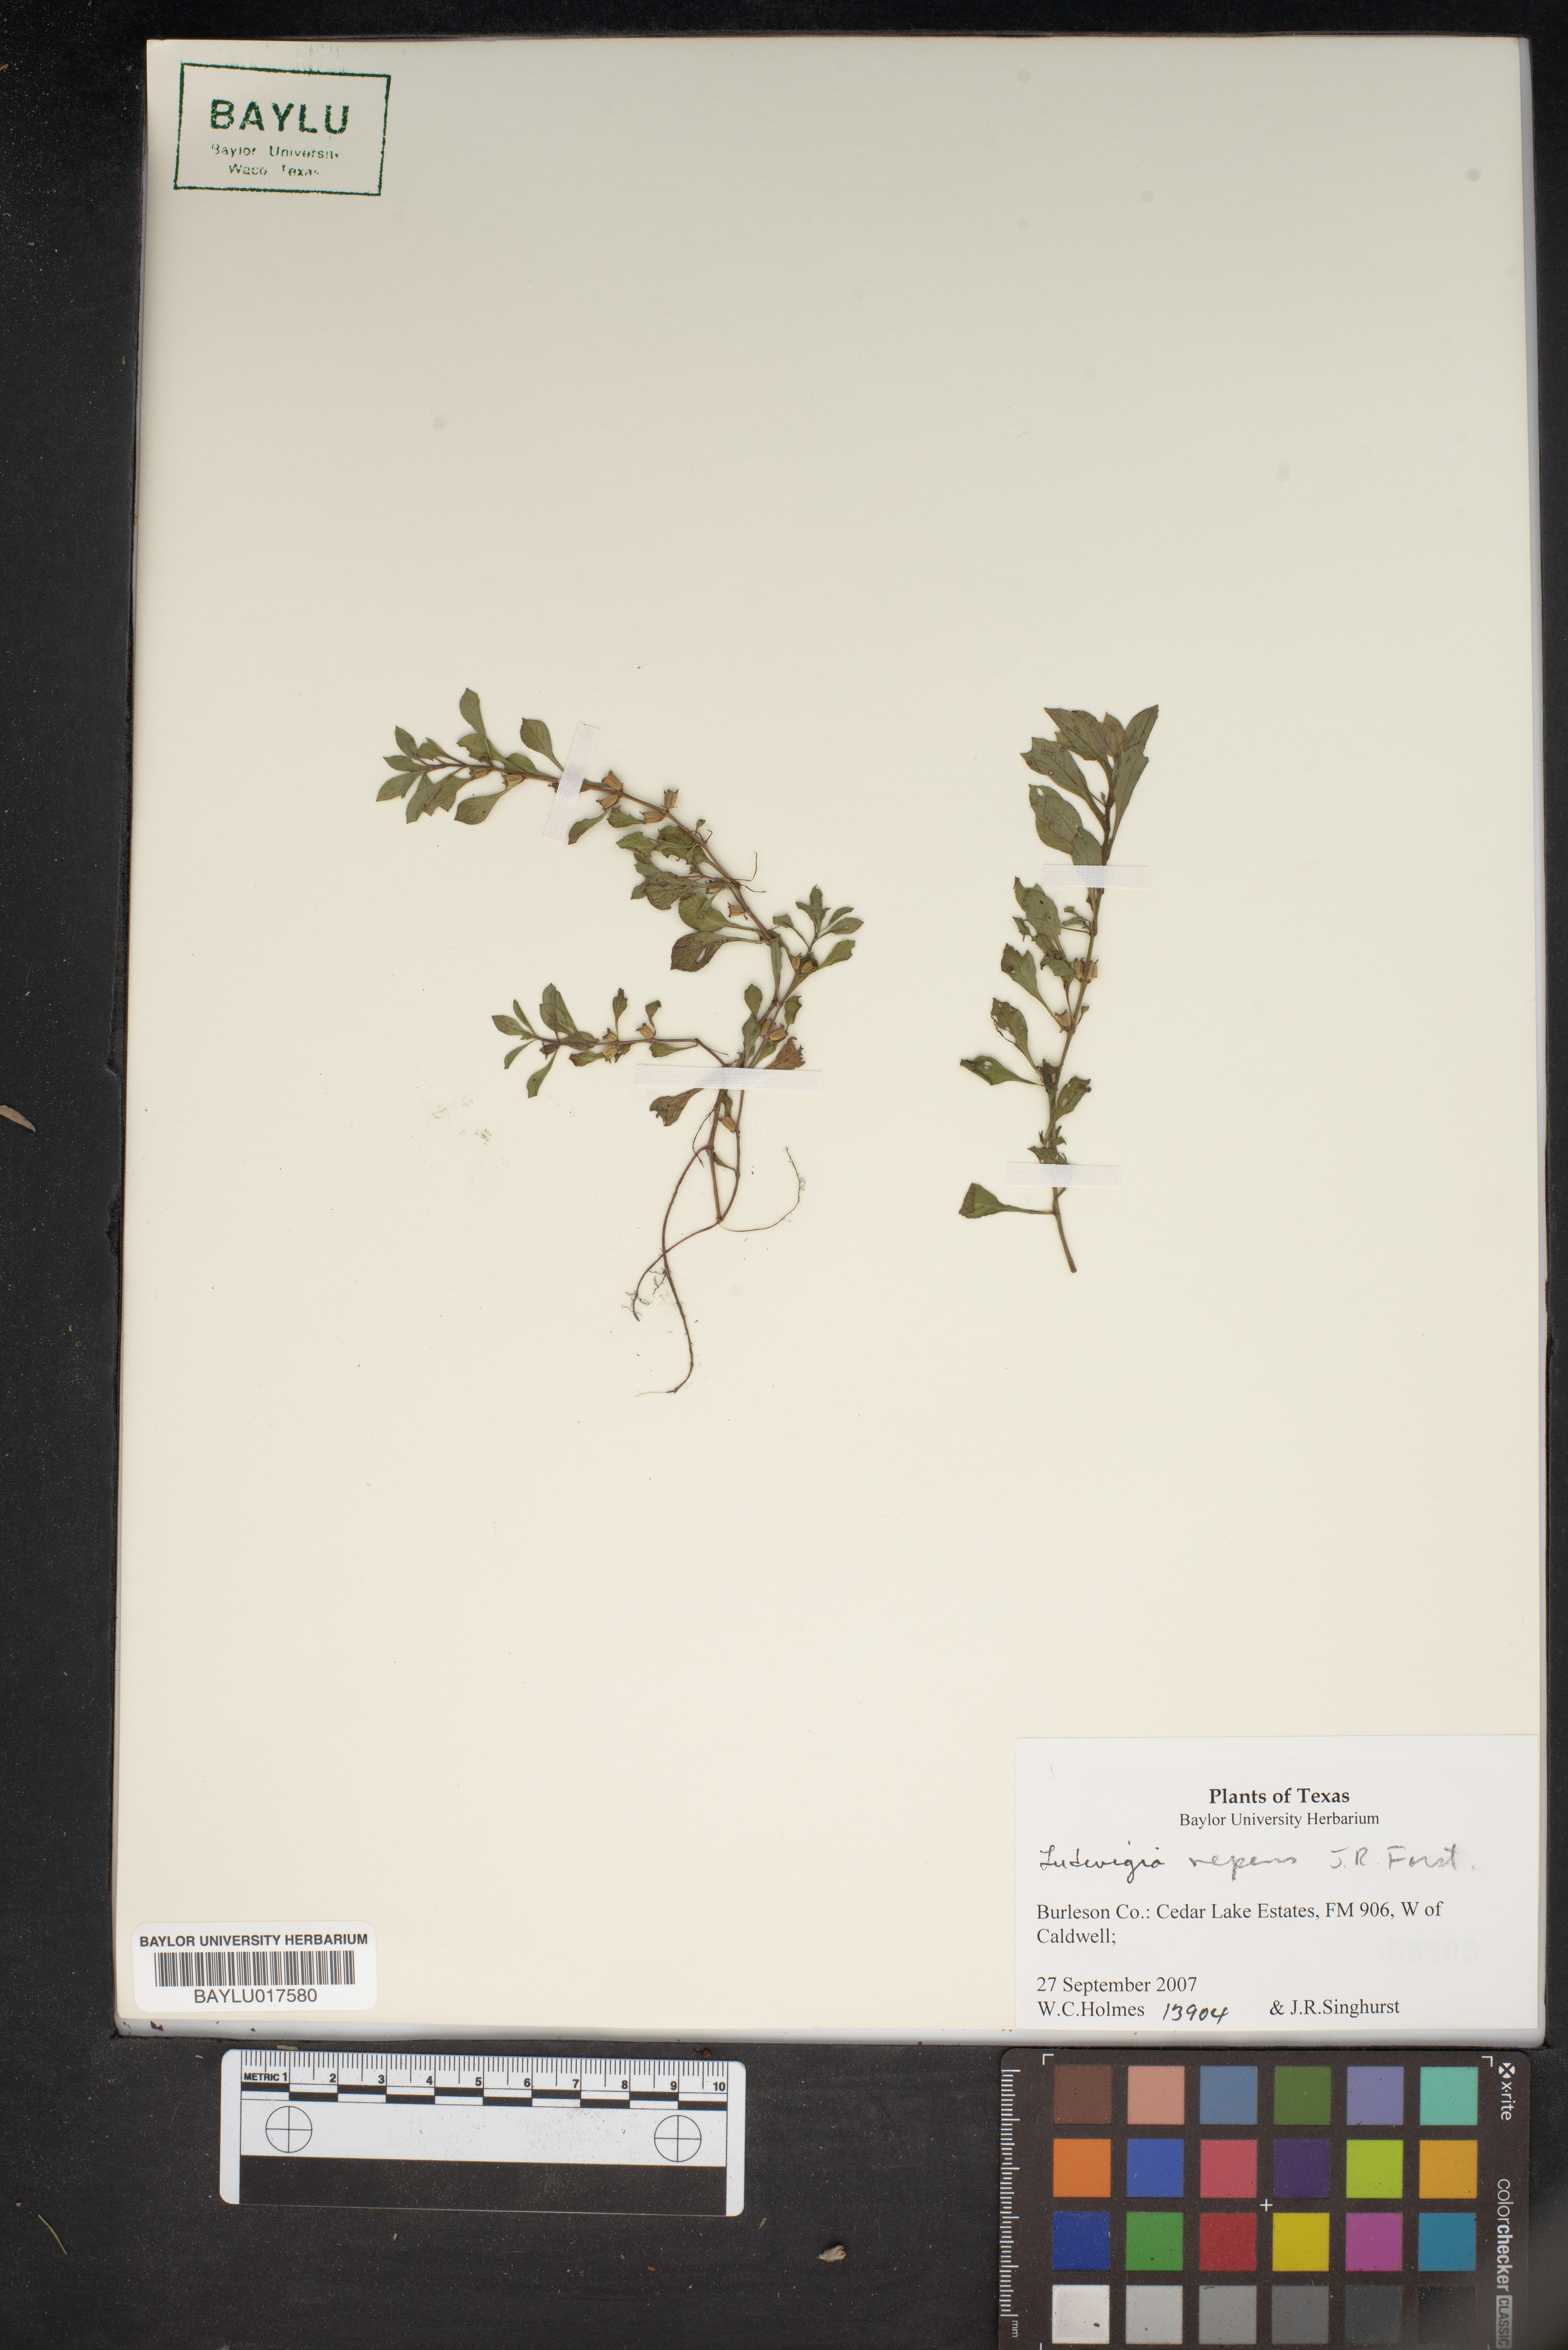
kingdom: Plantae
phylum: Tracheophyta
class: Magnoliopsida
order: Myrtales
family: Onagraceae
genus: Ludwigia
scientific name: Ludwigia repens
